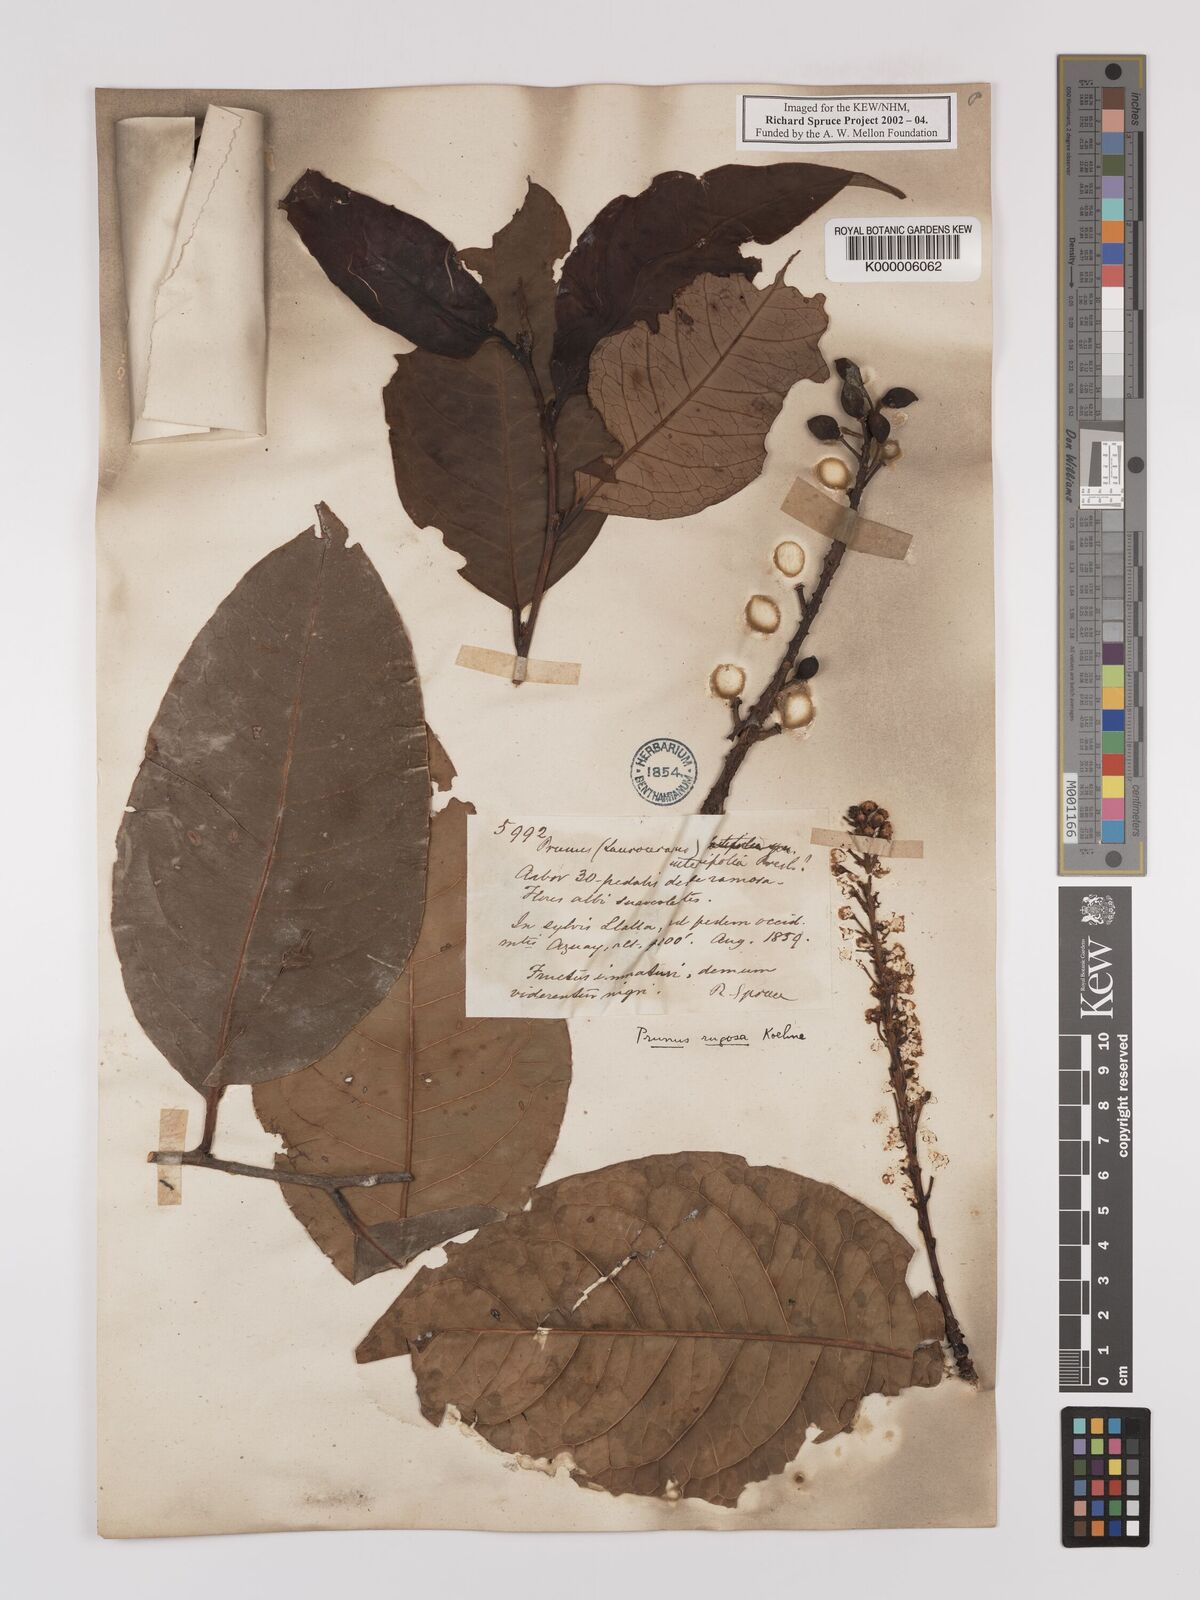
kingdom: Plantae
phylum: Tracheophyta
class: Magnoliopsida
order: Rosales
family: Rosaceae
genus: Prunus
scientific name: Prunus brittoniana
